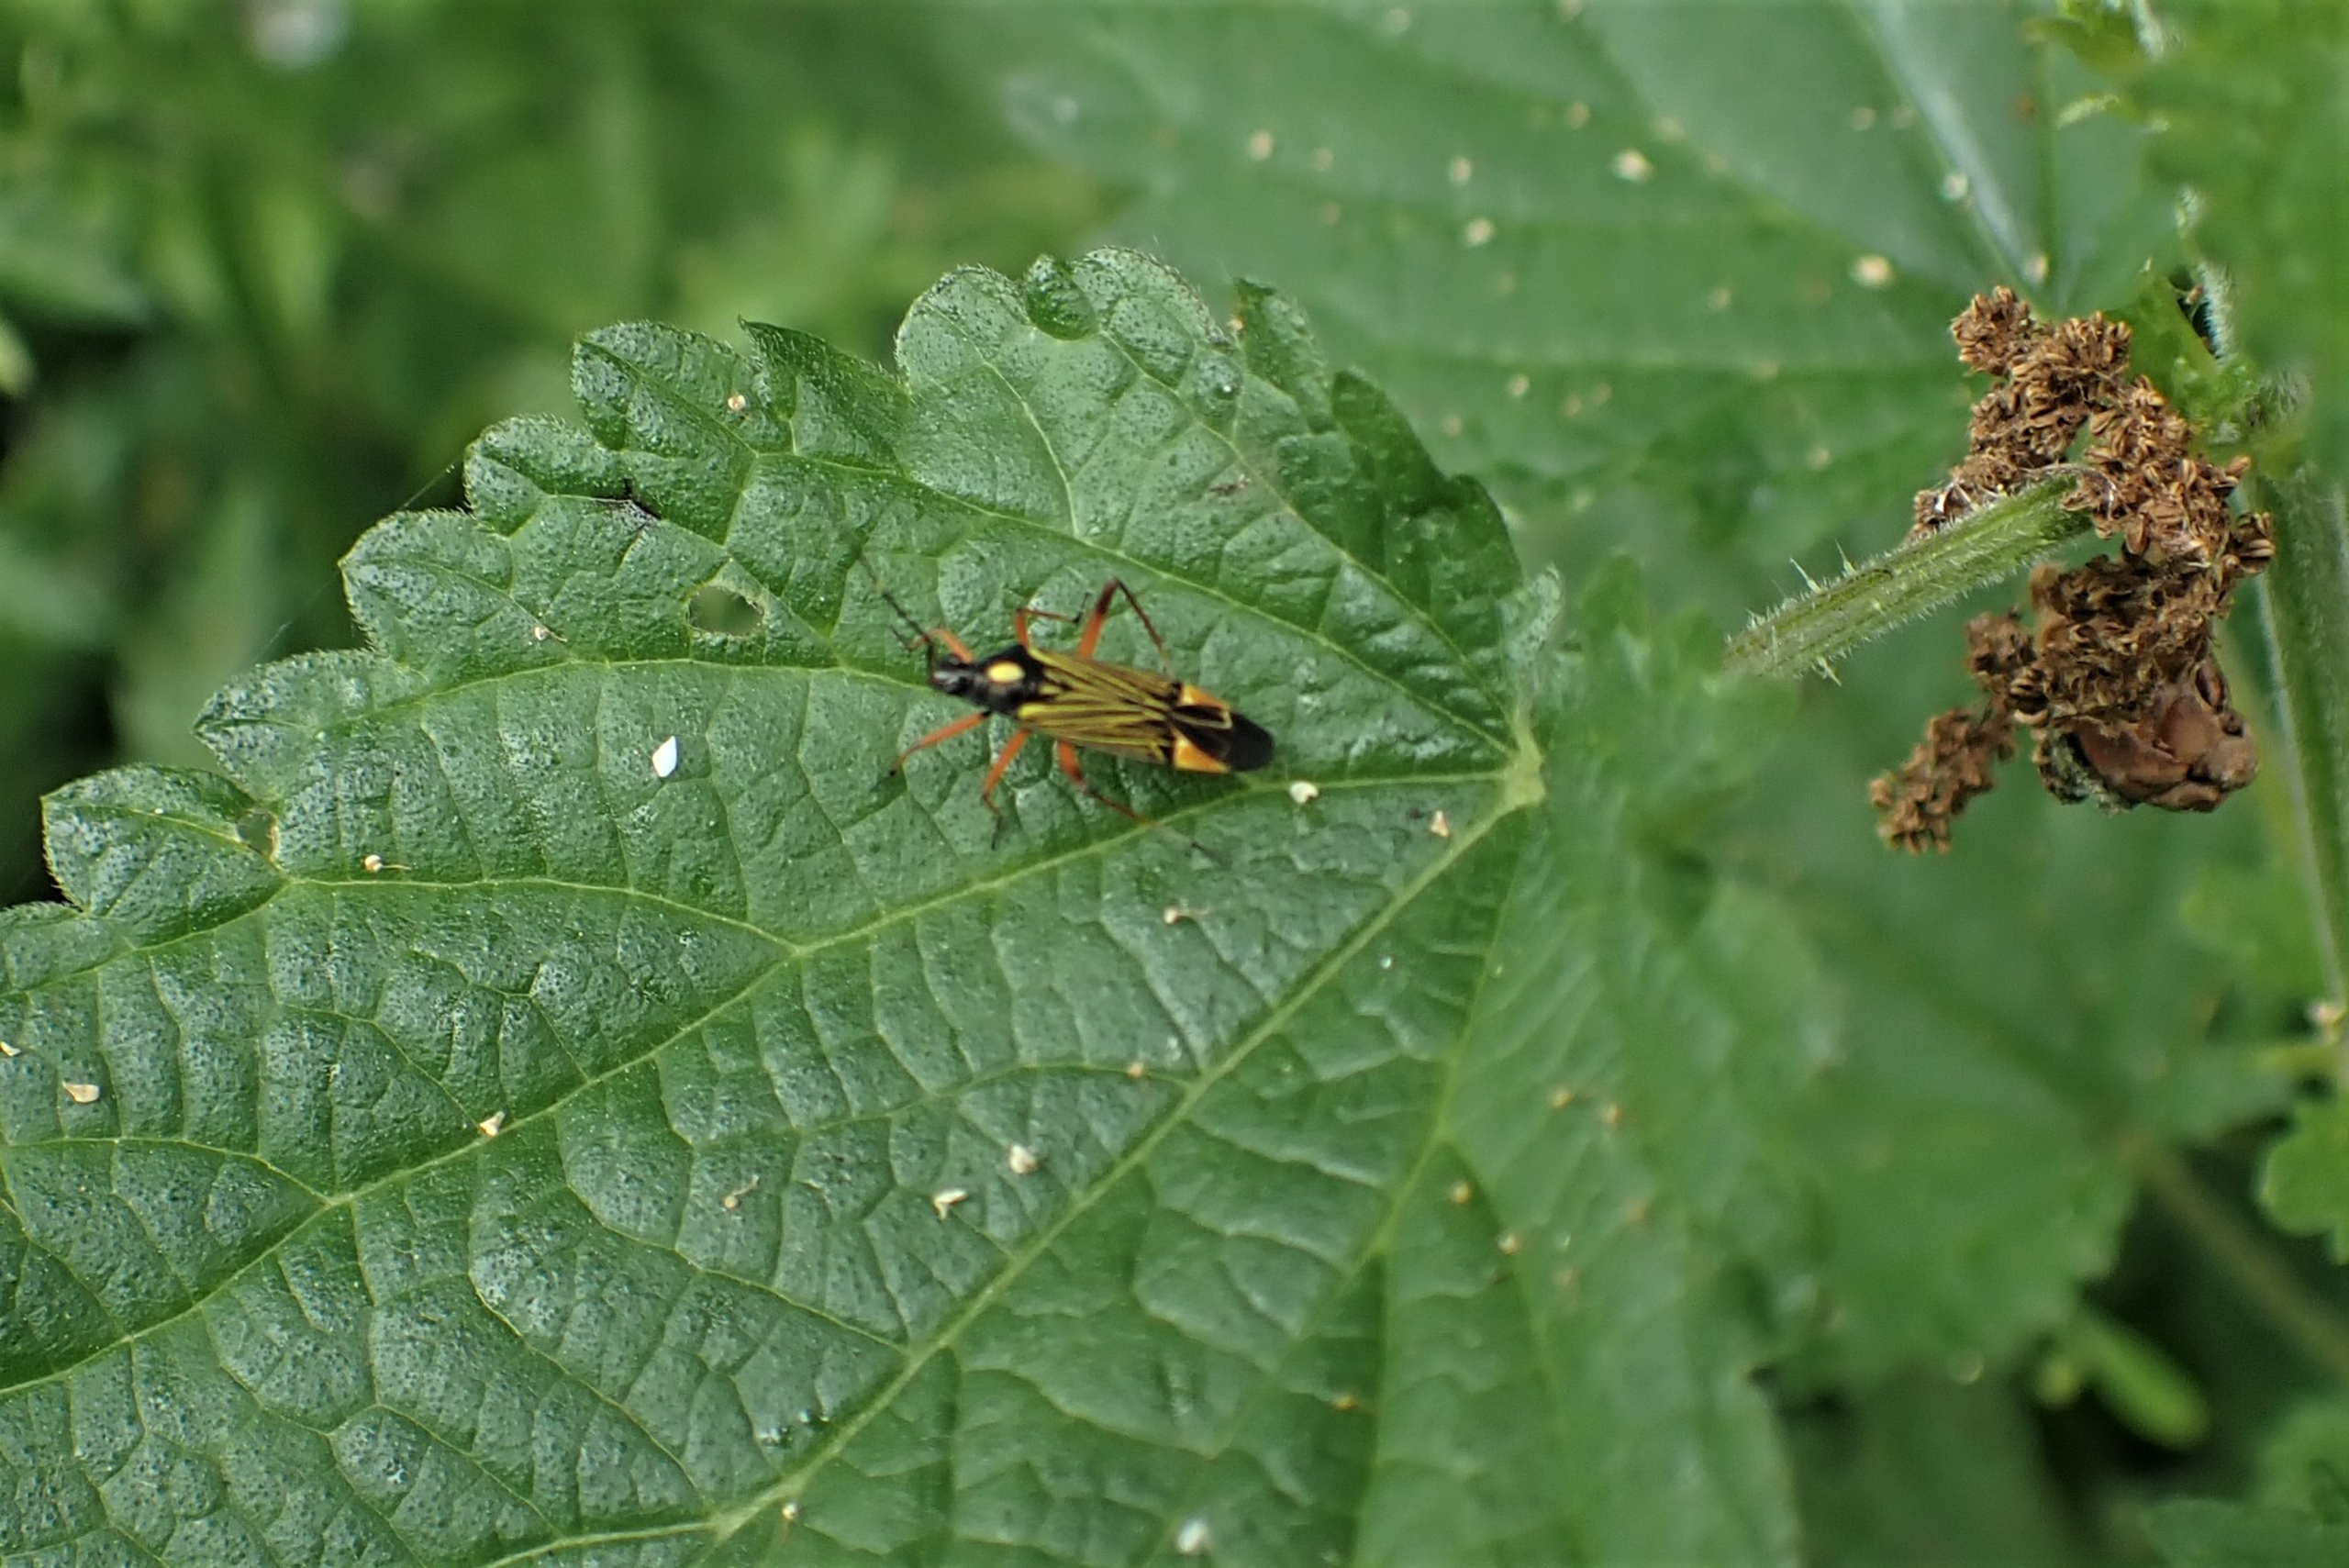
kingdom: Animalia
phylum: Arthropoda
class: Insecta
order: Hemiptera
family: Miridae
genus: Miris
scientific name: Miris striatus
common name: Gulstribet egetæge
